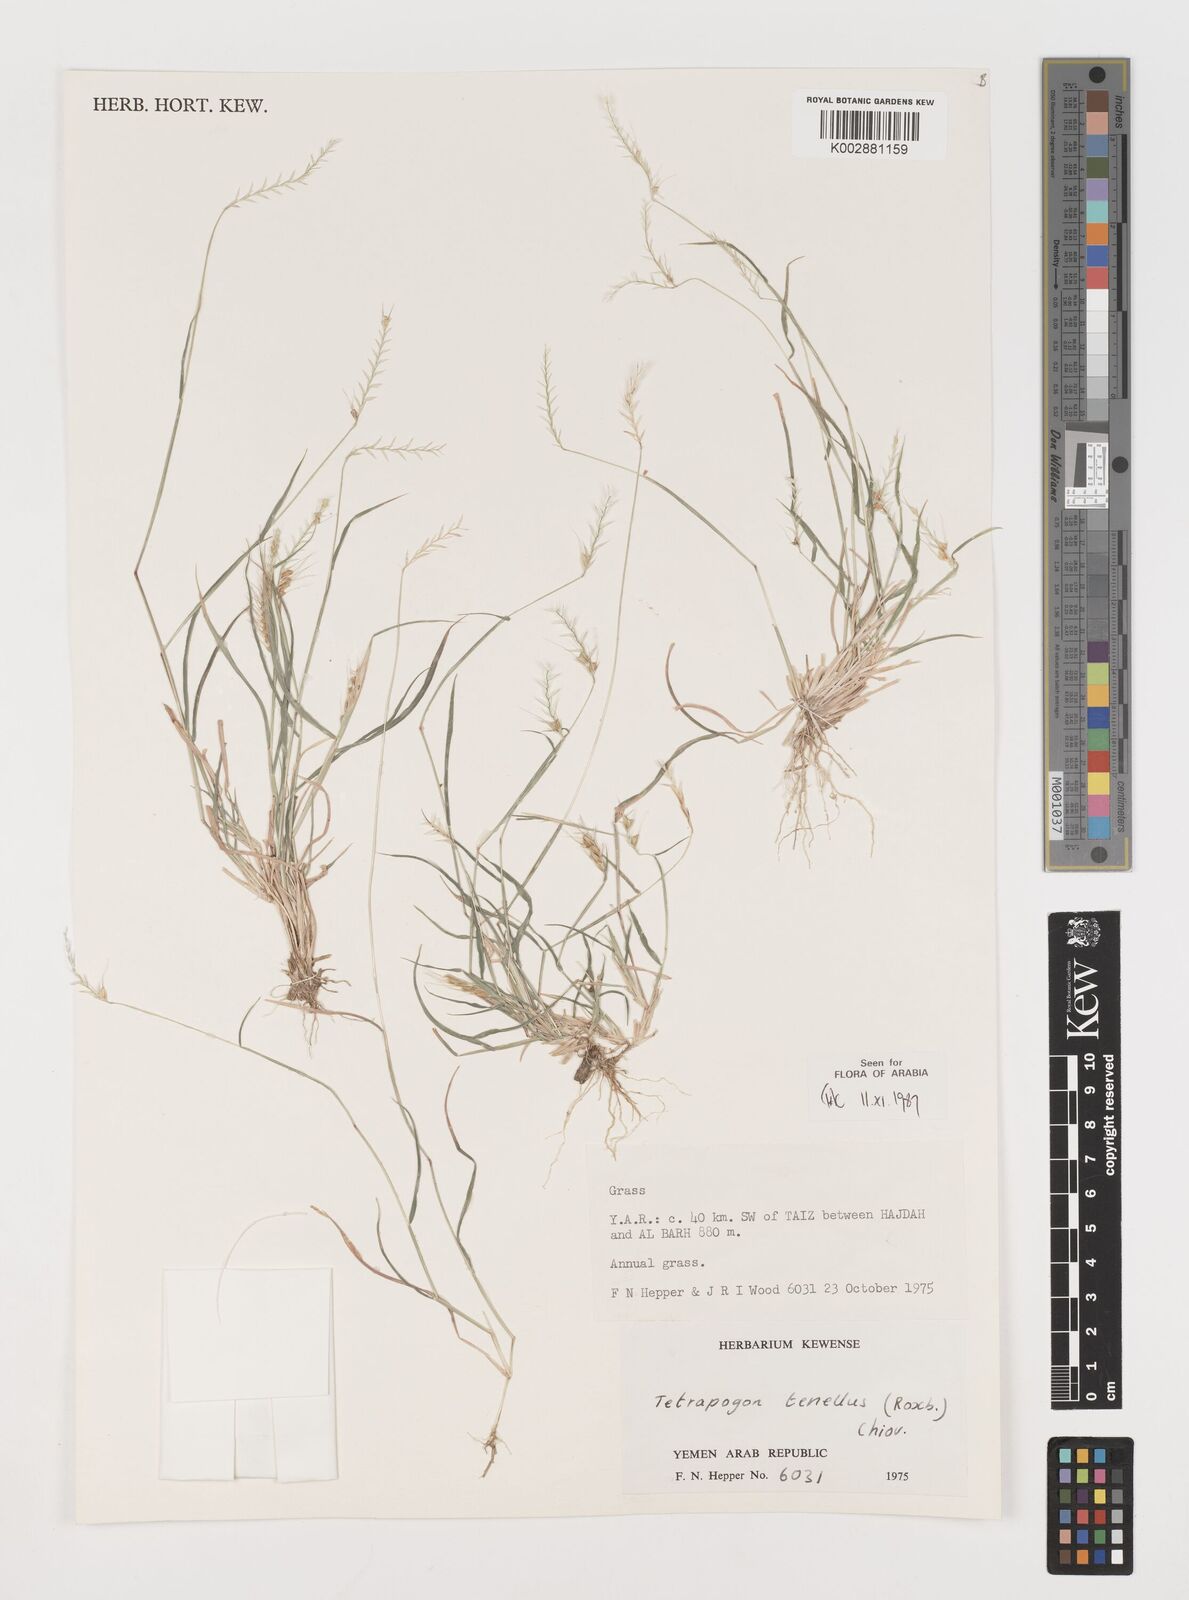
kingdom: Plantae
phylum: Tracheophyta
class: Liliopsida
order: Poales
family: Poaceae
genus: Tetrapogon
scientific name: Tetrapogon tenellus
